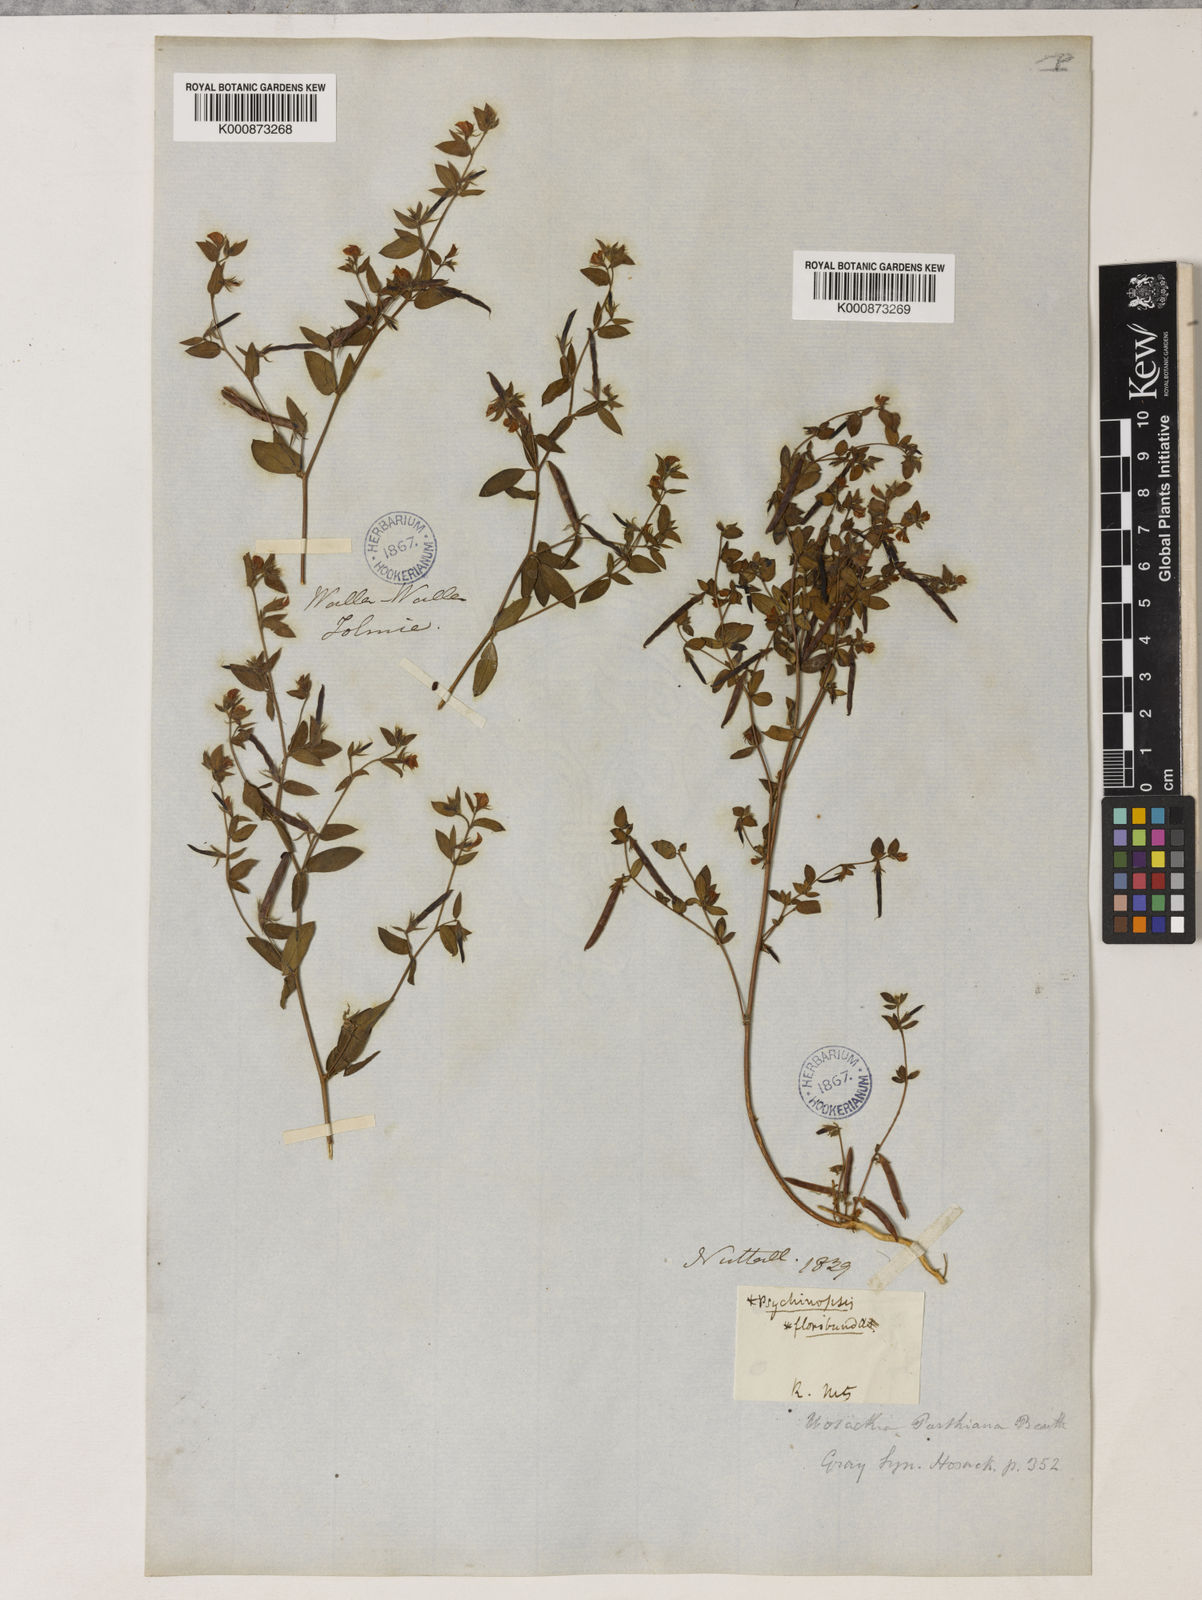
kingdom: Plantae
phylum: Tracheophyta
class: Magnoliopsida
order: Fabales
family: Fabaceae
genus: Collaea
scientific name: Collaea speciosa
